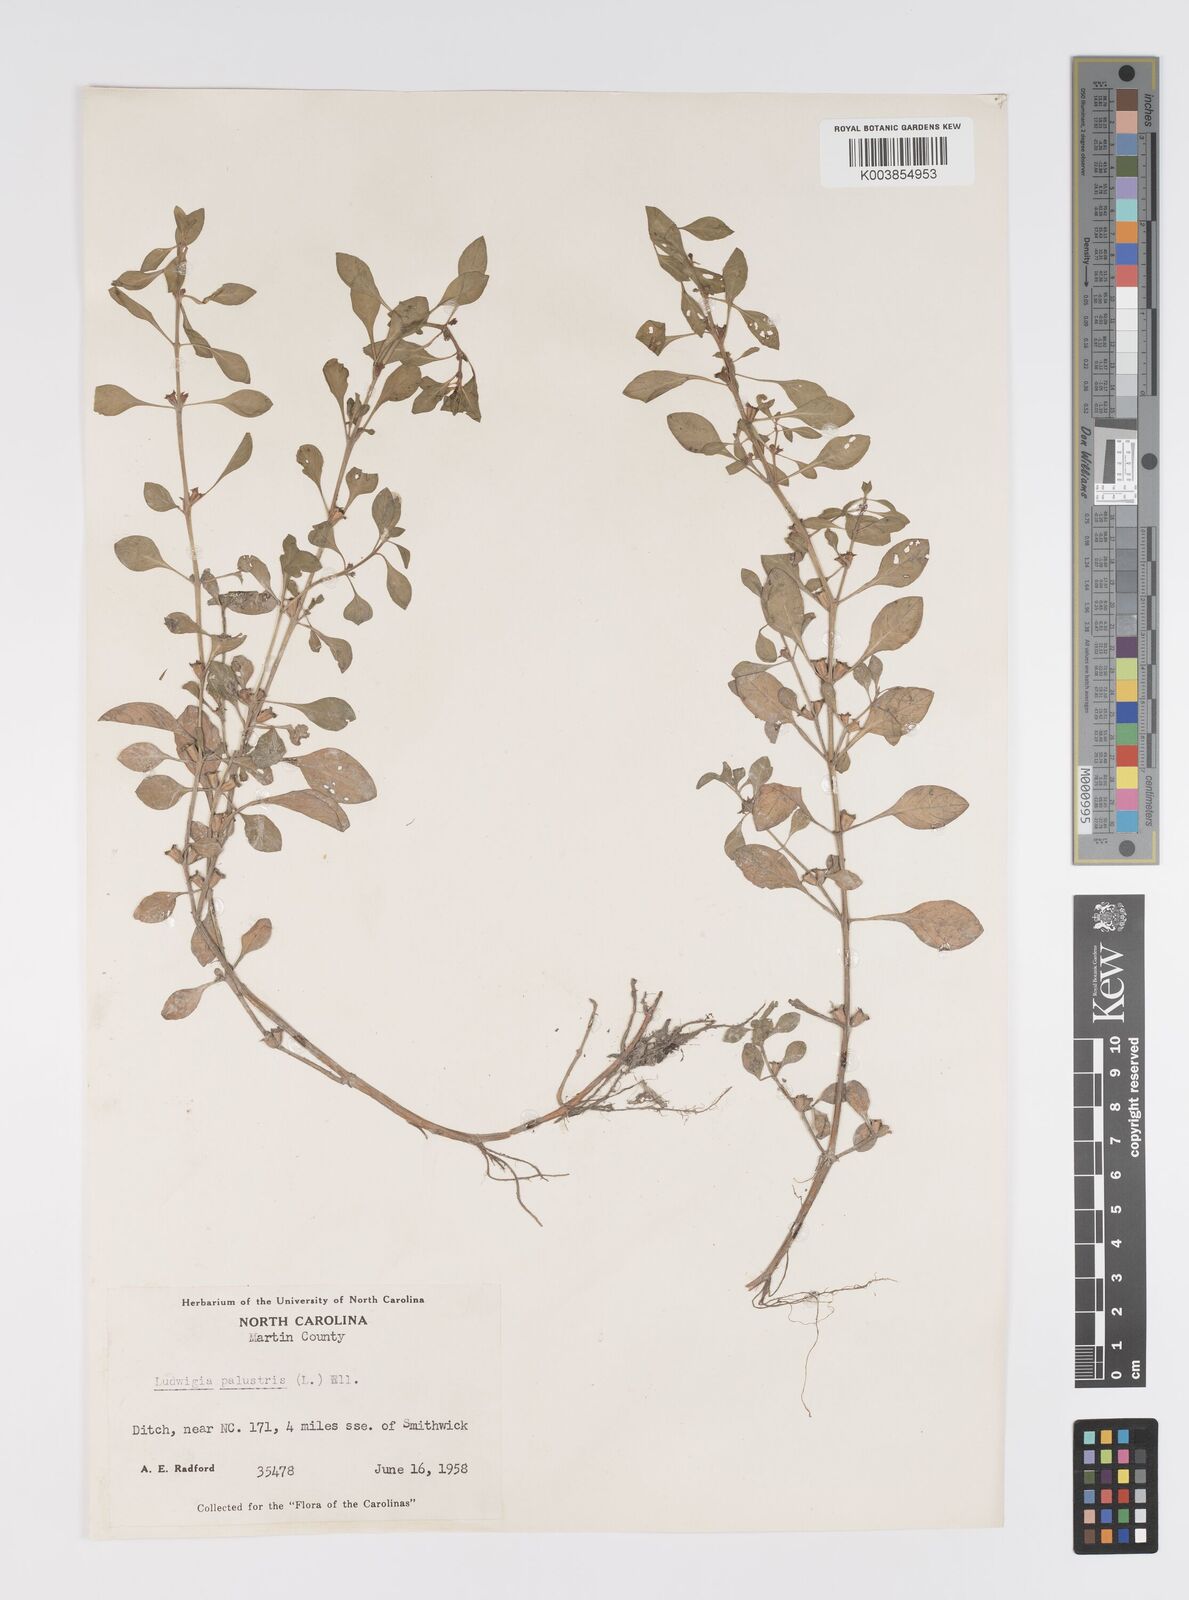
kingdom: Plantae
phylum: Tracheophyta
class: Magnoliopsida
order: Myrtales
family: Onagraceae
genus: Ludwigia
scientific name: Ludwigia palustris
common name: Hampshire-purslane
